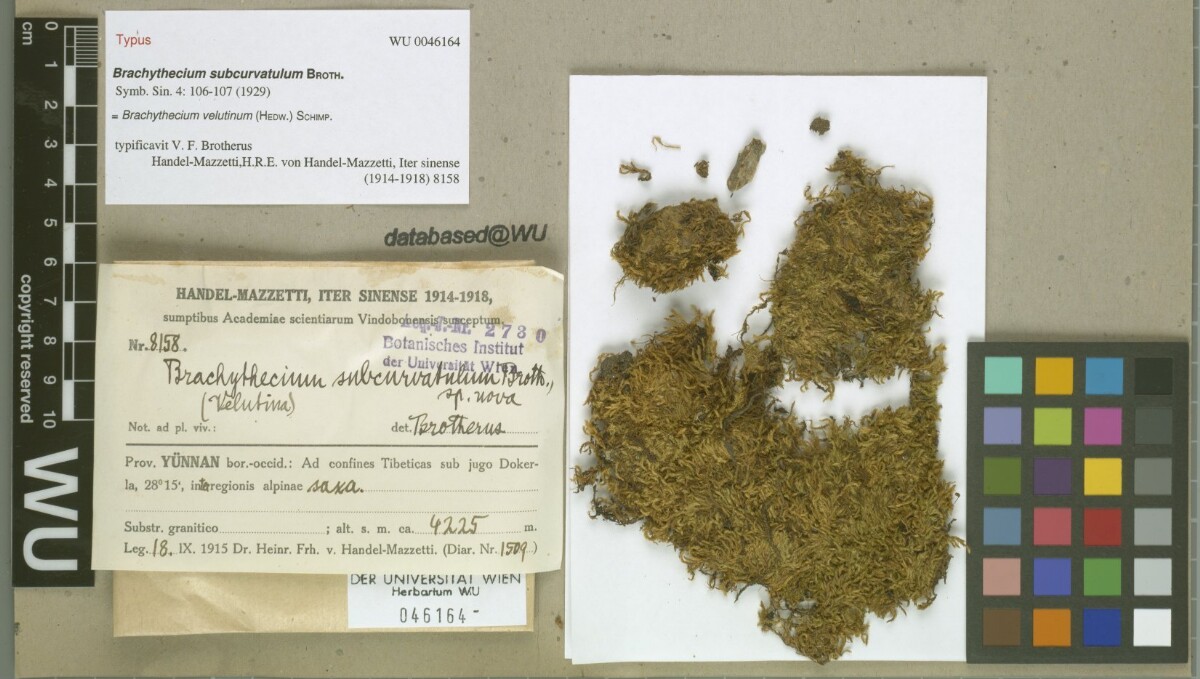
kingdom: Plantae
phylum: Bryophyta
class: Bryopsida
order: Hypnales
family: Brachytheciaceae
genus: Brachytheciastrum
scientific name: Brachytheciastrum velutinum
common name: Velvet feather-moss
